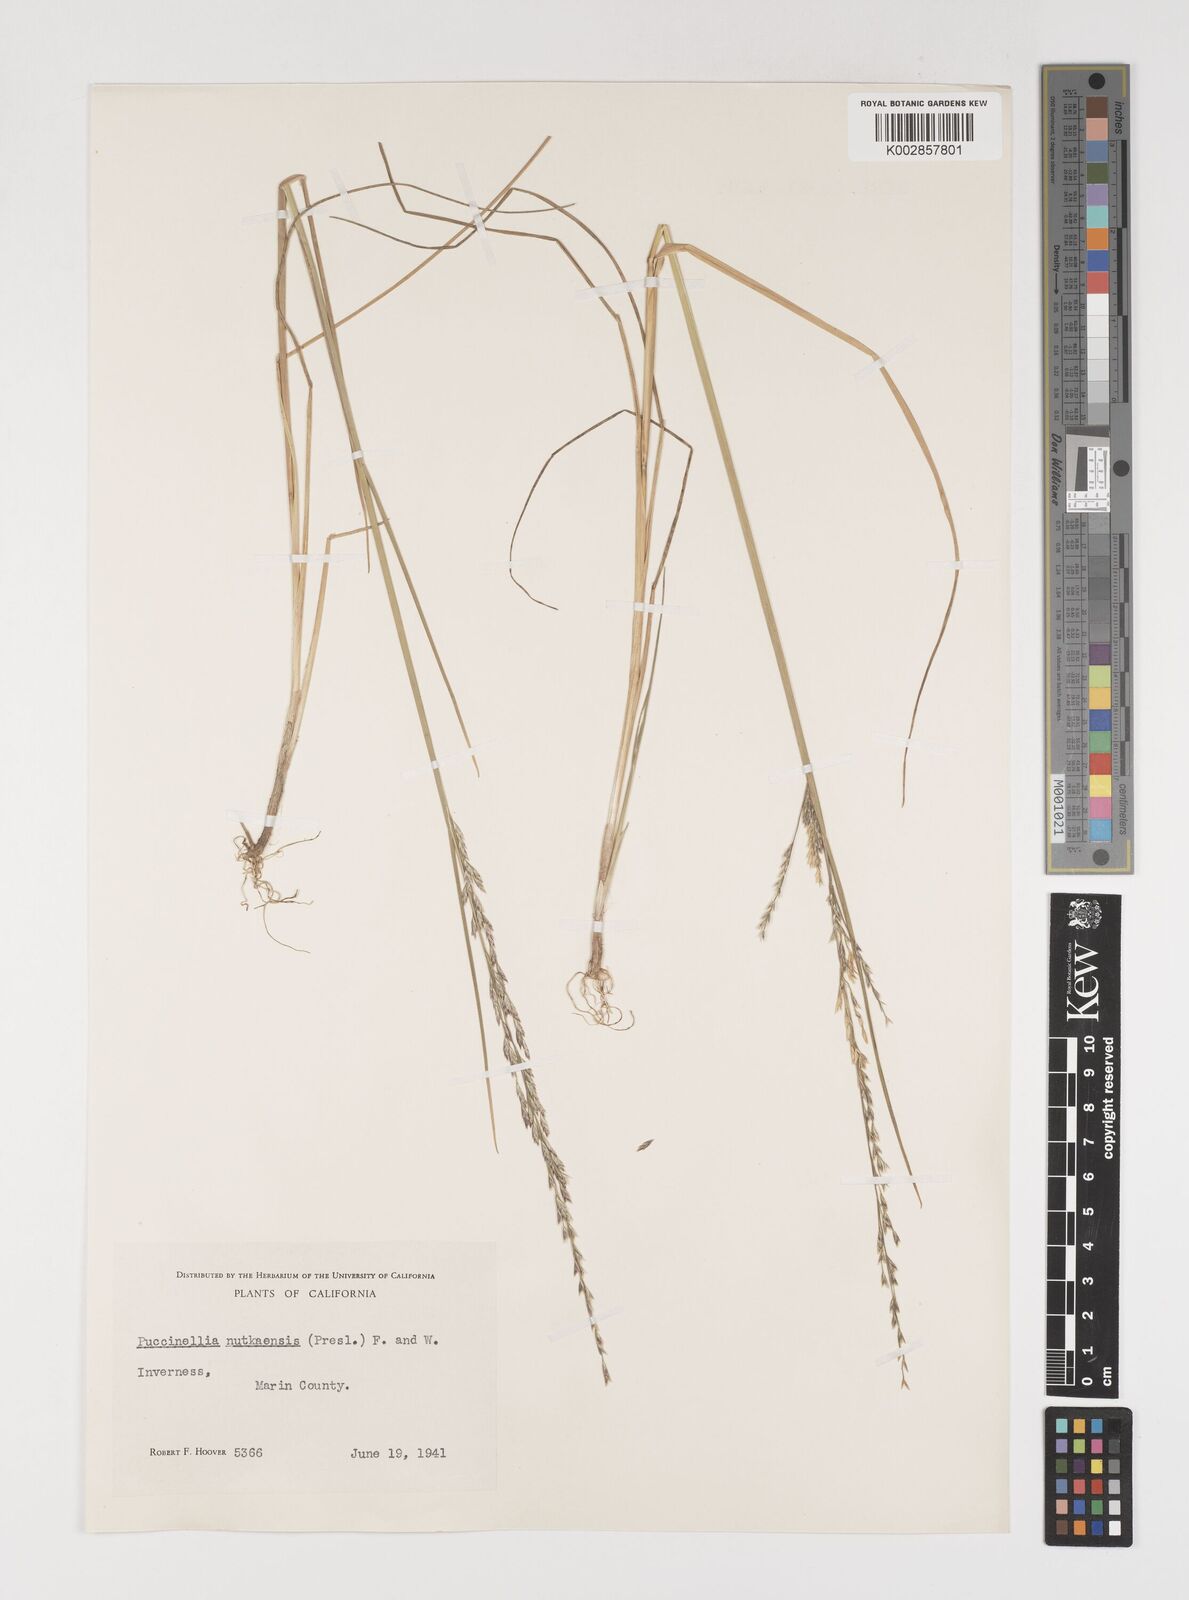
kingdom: Plantae
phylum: Tracheophyta
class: Liliopsida
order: Poales
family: Poaceae
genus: Puccinellia
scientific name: Puccinellia nutkaensis
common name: Nootka alkaligrass
